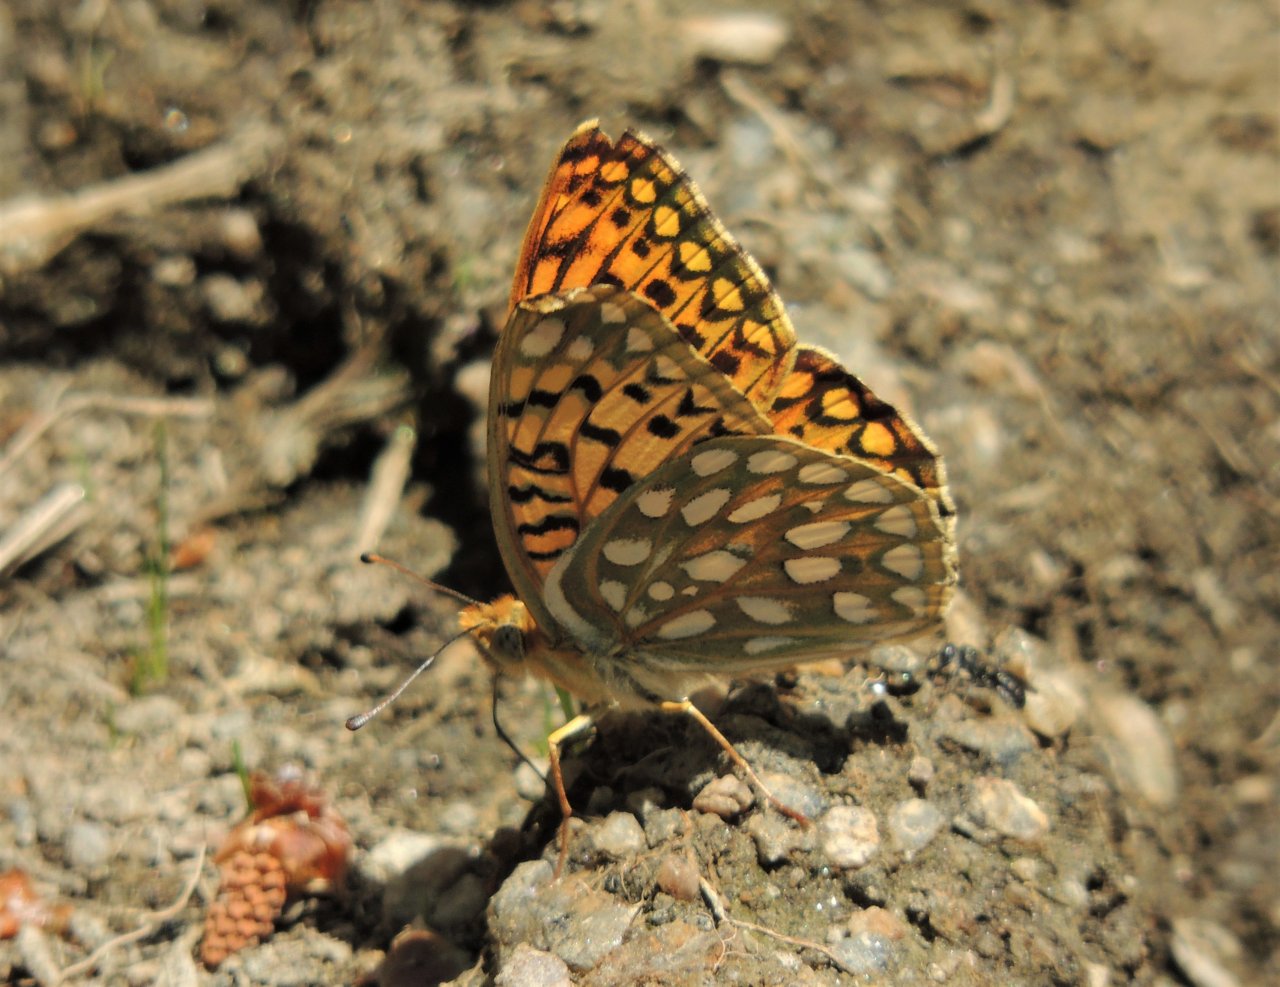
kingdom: Animalia
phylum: Arthropoda
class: Insecta
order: Lepidoptera
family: Nymphalidae
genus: Speyeria
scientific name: Speyeria callippe
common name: Callippe Fritillary
